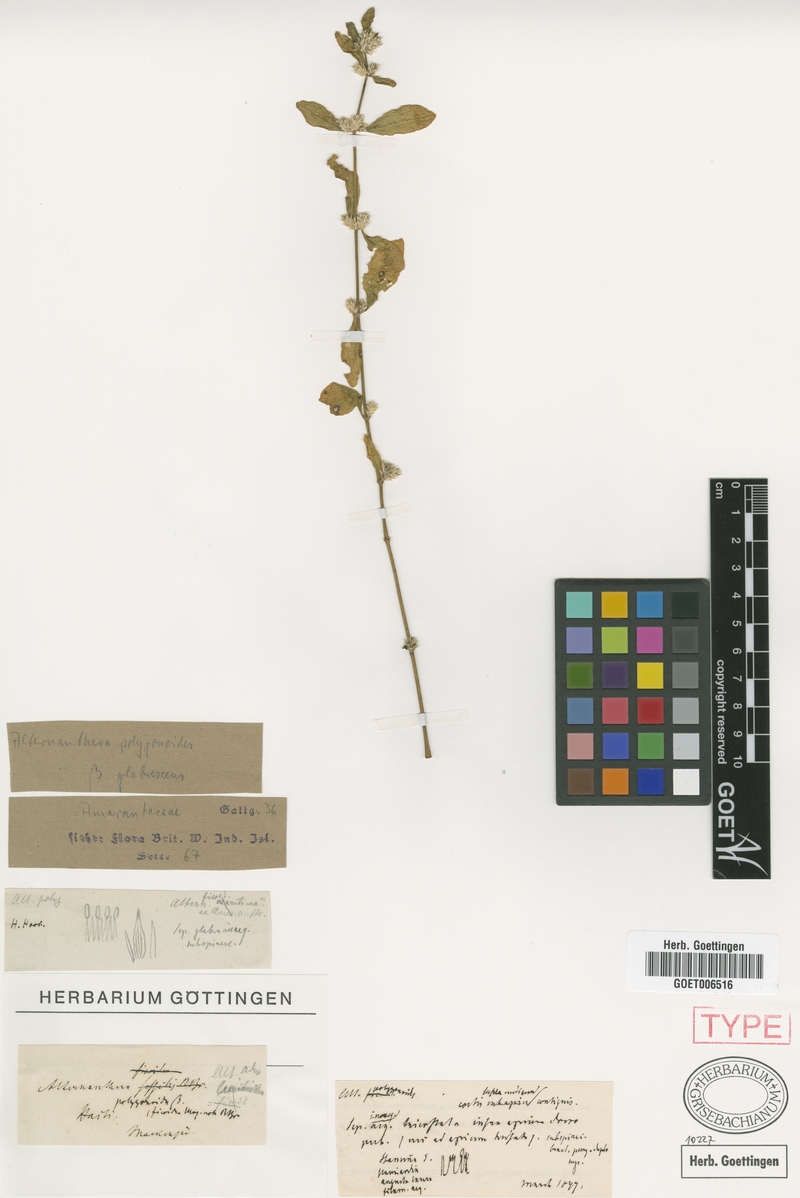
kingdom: Plantae
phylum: Tracheophyta
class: Magnoliopsida
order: Caryophyllales
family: Amaranthaceae
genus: Alternanthera
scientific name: Alternanthera ficoidea
